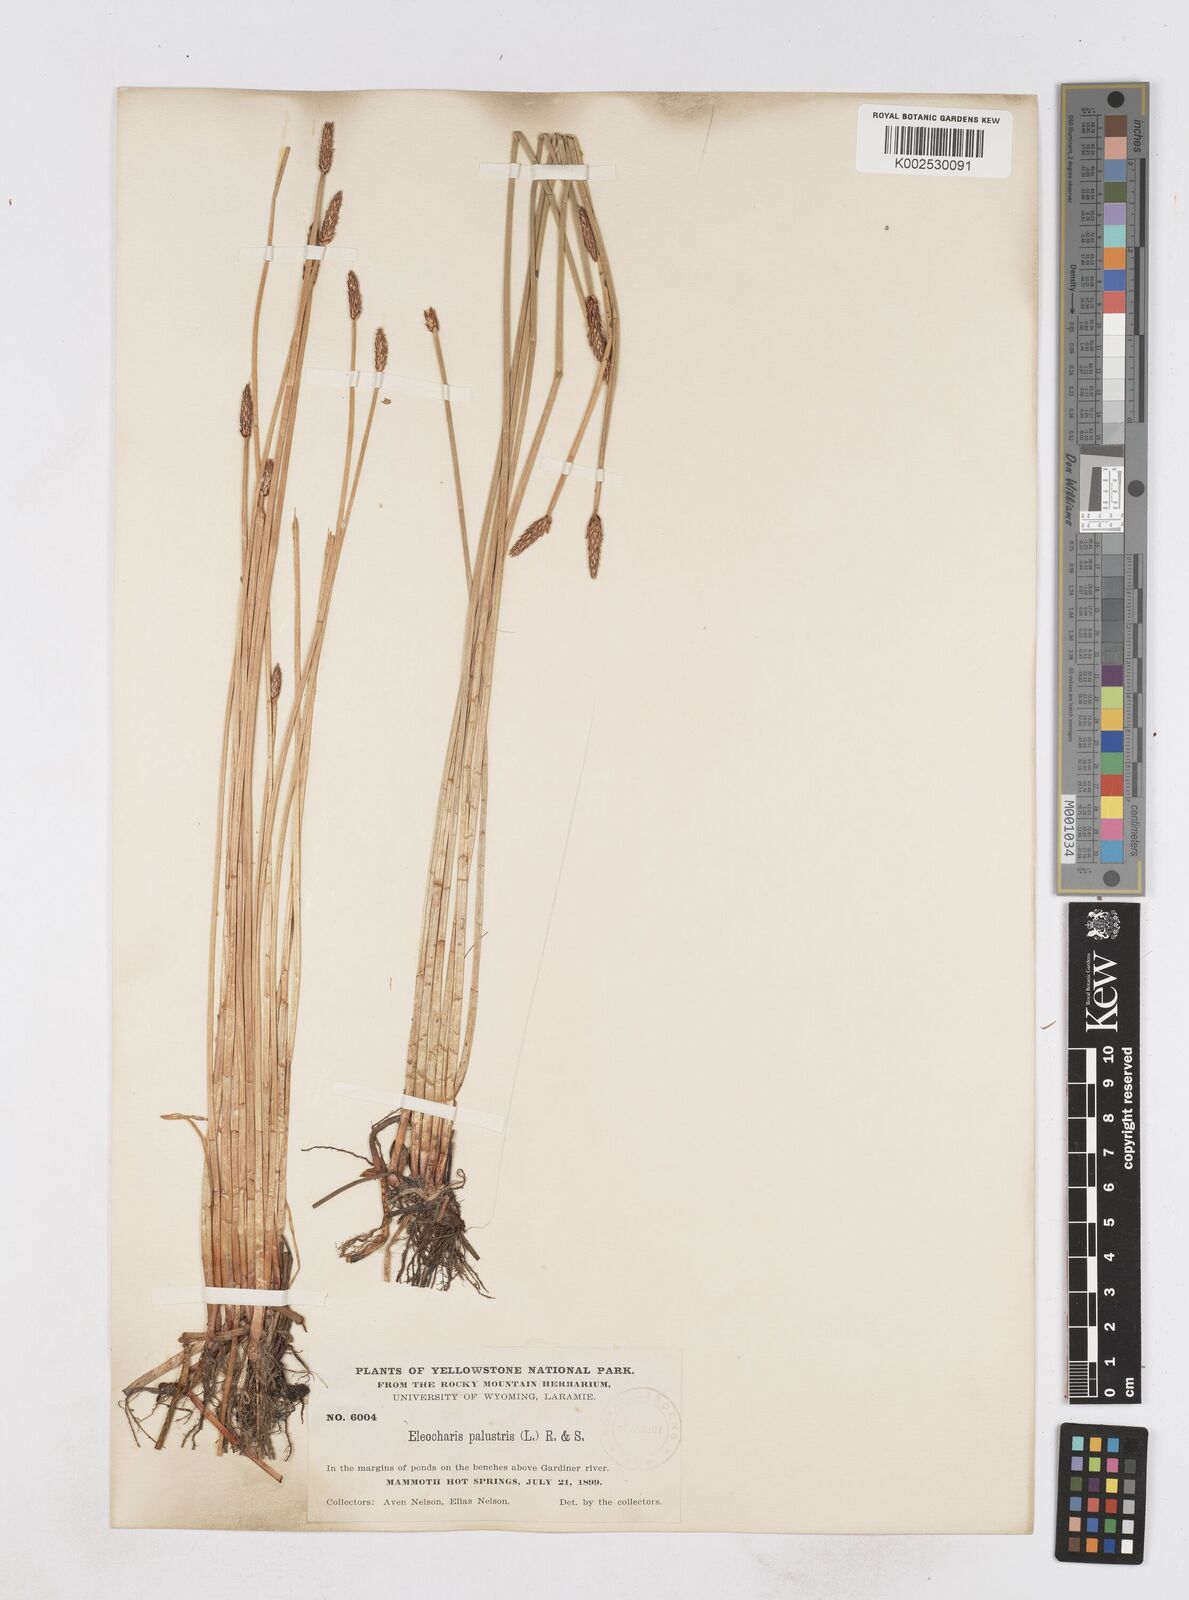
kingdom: Plantae
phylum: Tracheophyta
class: Liliopsida
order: Poales
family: Cyperaceae
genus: Eleocharis
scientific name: Eleocharis palustris
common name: Common spike-rush
